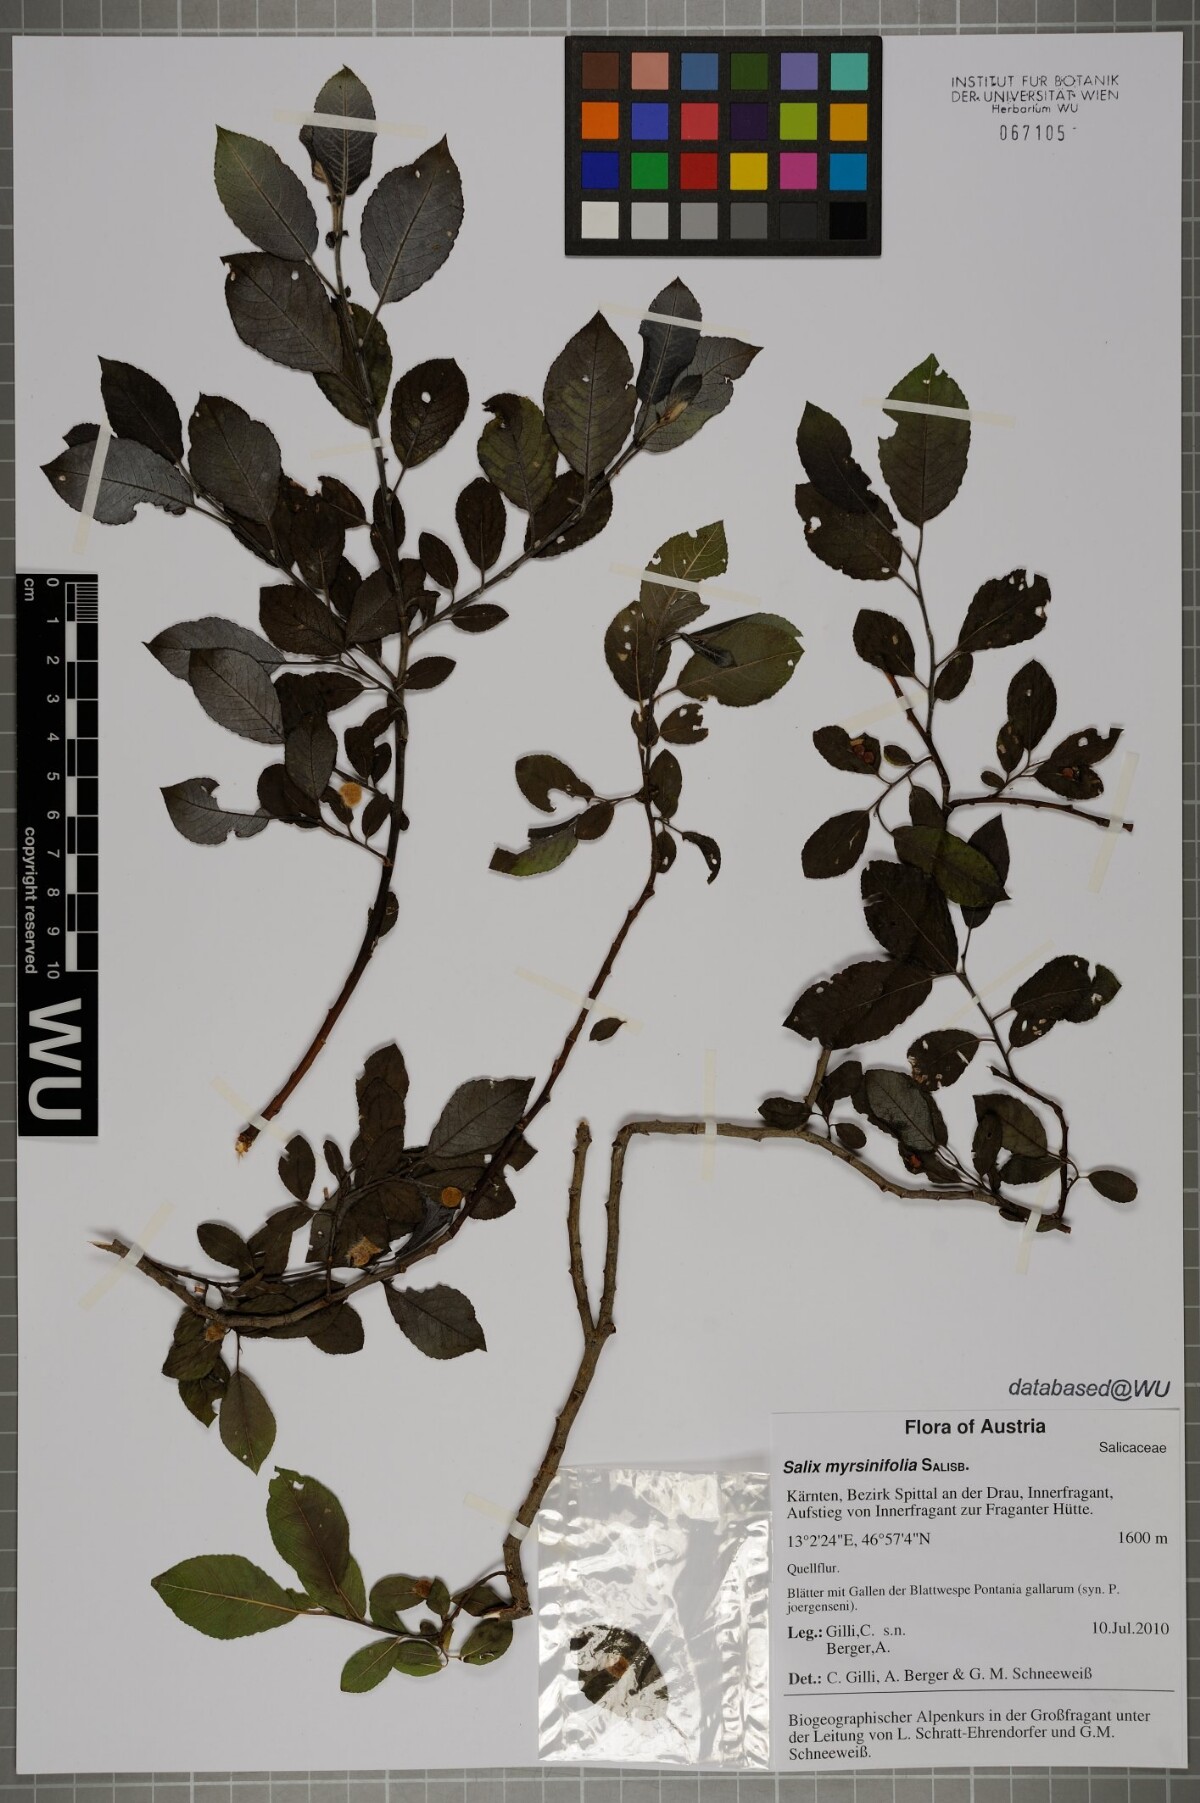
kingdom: Plantae
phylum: Tracheophyta
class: Magnoliopsida
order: Malpighiales
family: Salicaceae
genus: Salix
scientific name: Salix myrsinifolia
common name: Dark-leaved willow
